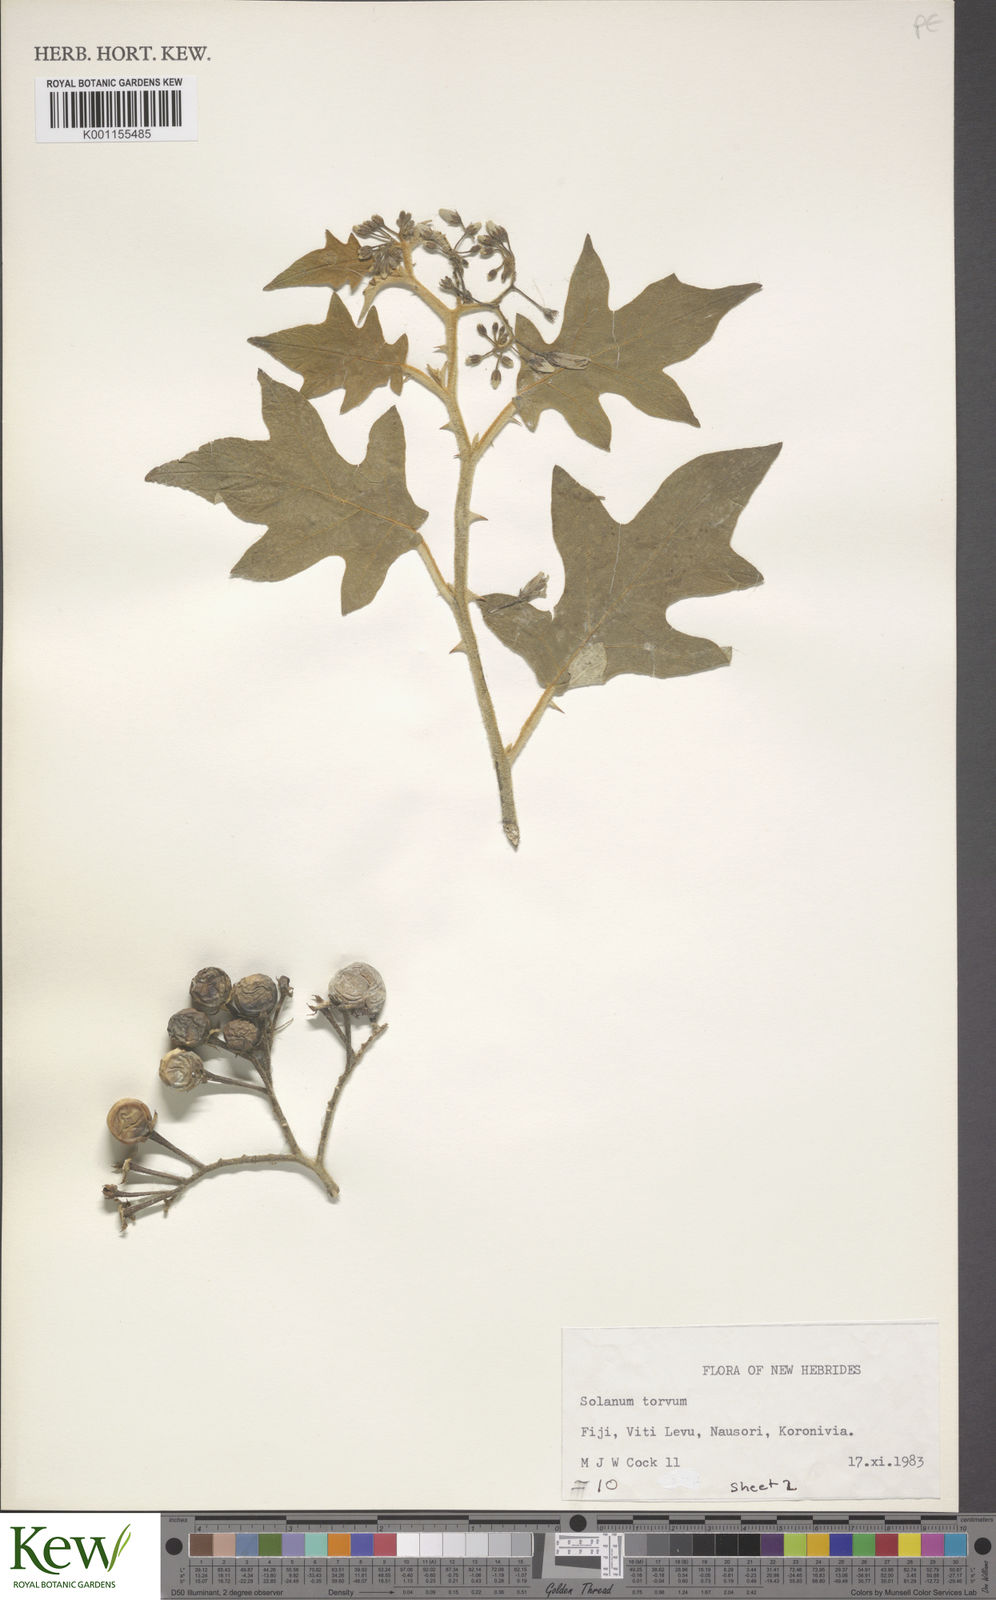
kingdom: Plantae
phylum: Tracheophyta
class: Magnoliopsida
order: Solanales
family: Solanaceae
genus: Solanum
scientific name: Solanum torvum
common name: Turkey berry
